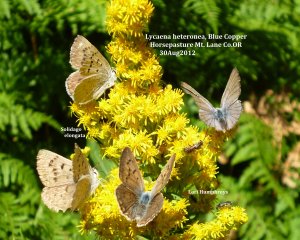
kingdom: Animalia
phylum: Arthropoda
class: Insecta
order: Lepidoptera
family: Lycaenidae
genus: Lycaena
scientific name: Lycaena heteronea
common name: Blue Copper
